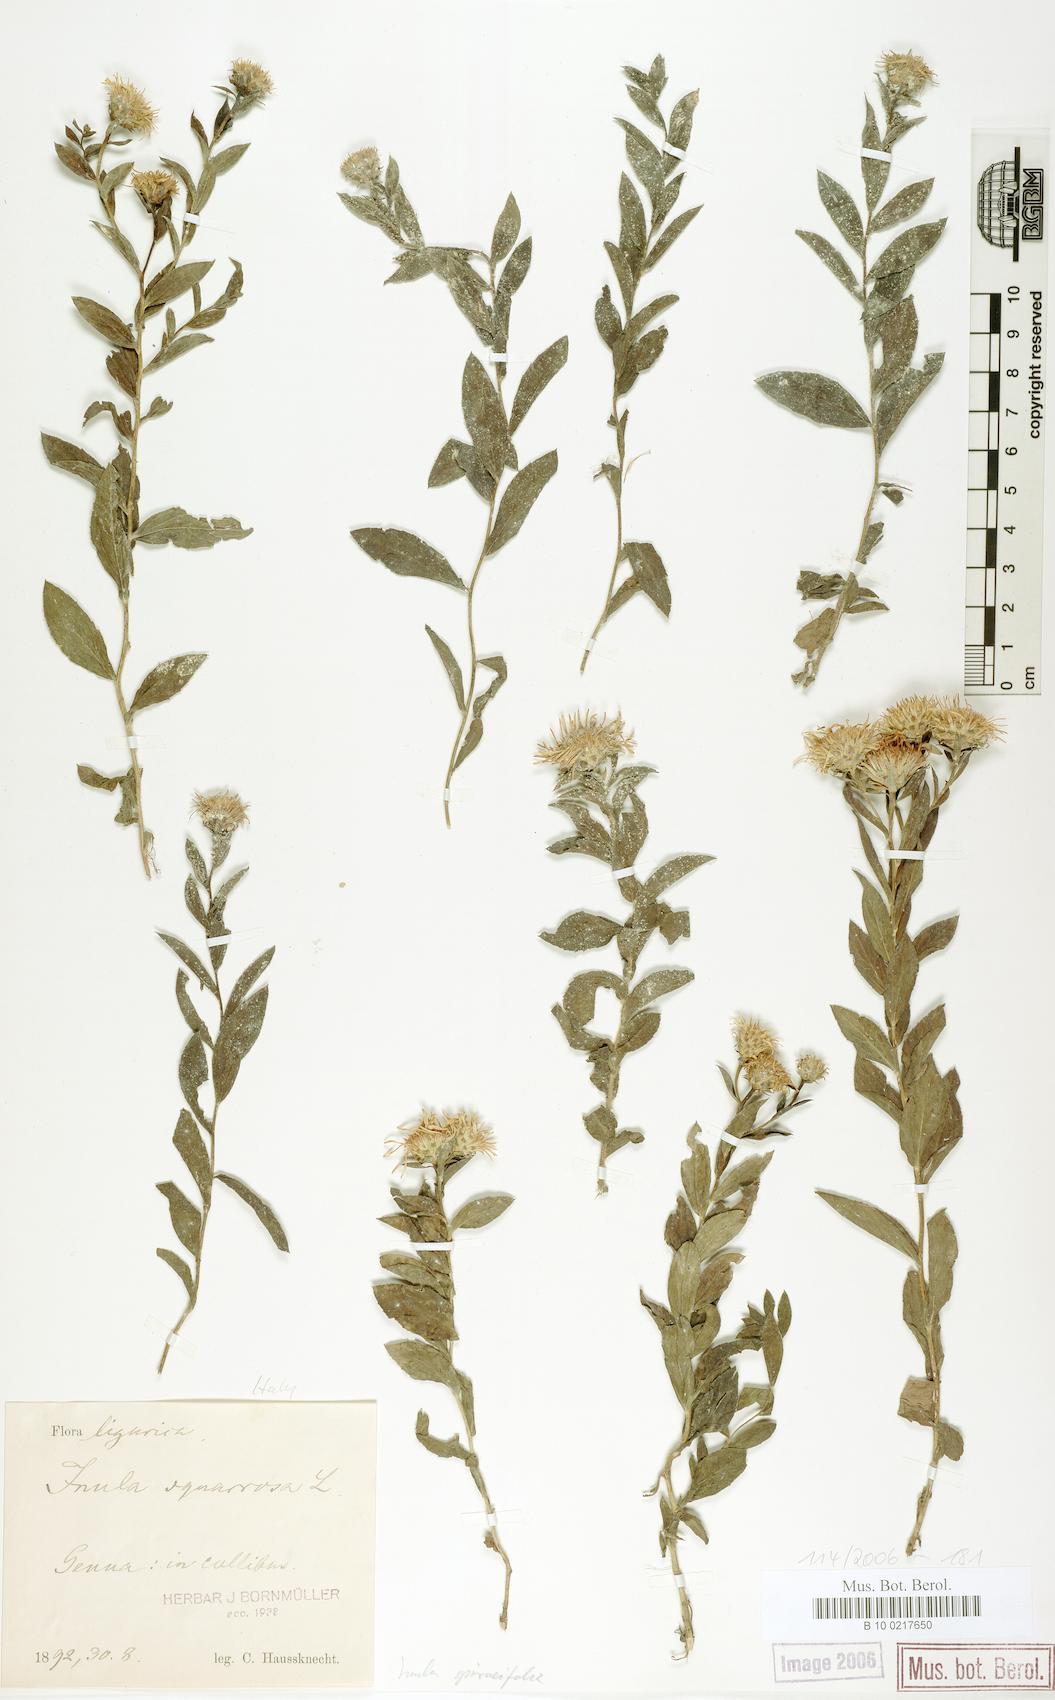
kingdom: Plantae
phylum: Tracheophyta
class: Magnoliopsida
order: Asterales
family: Asteraceae
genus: Pentanema
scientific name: Pentanema spiraeifolium
